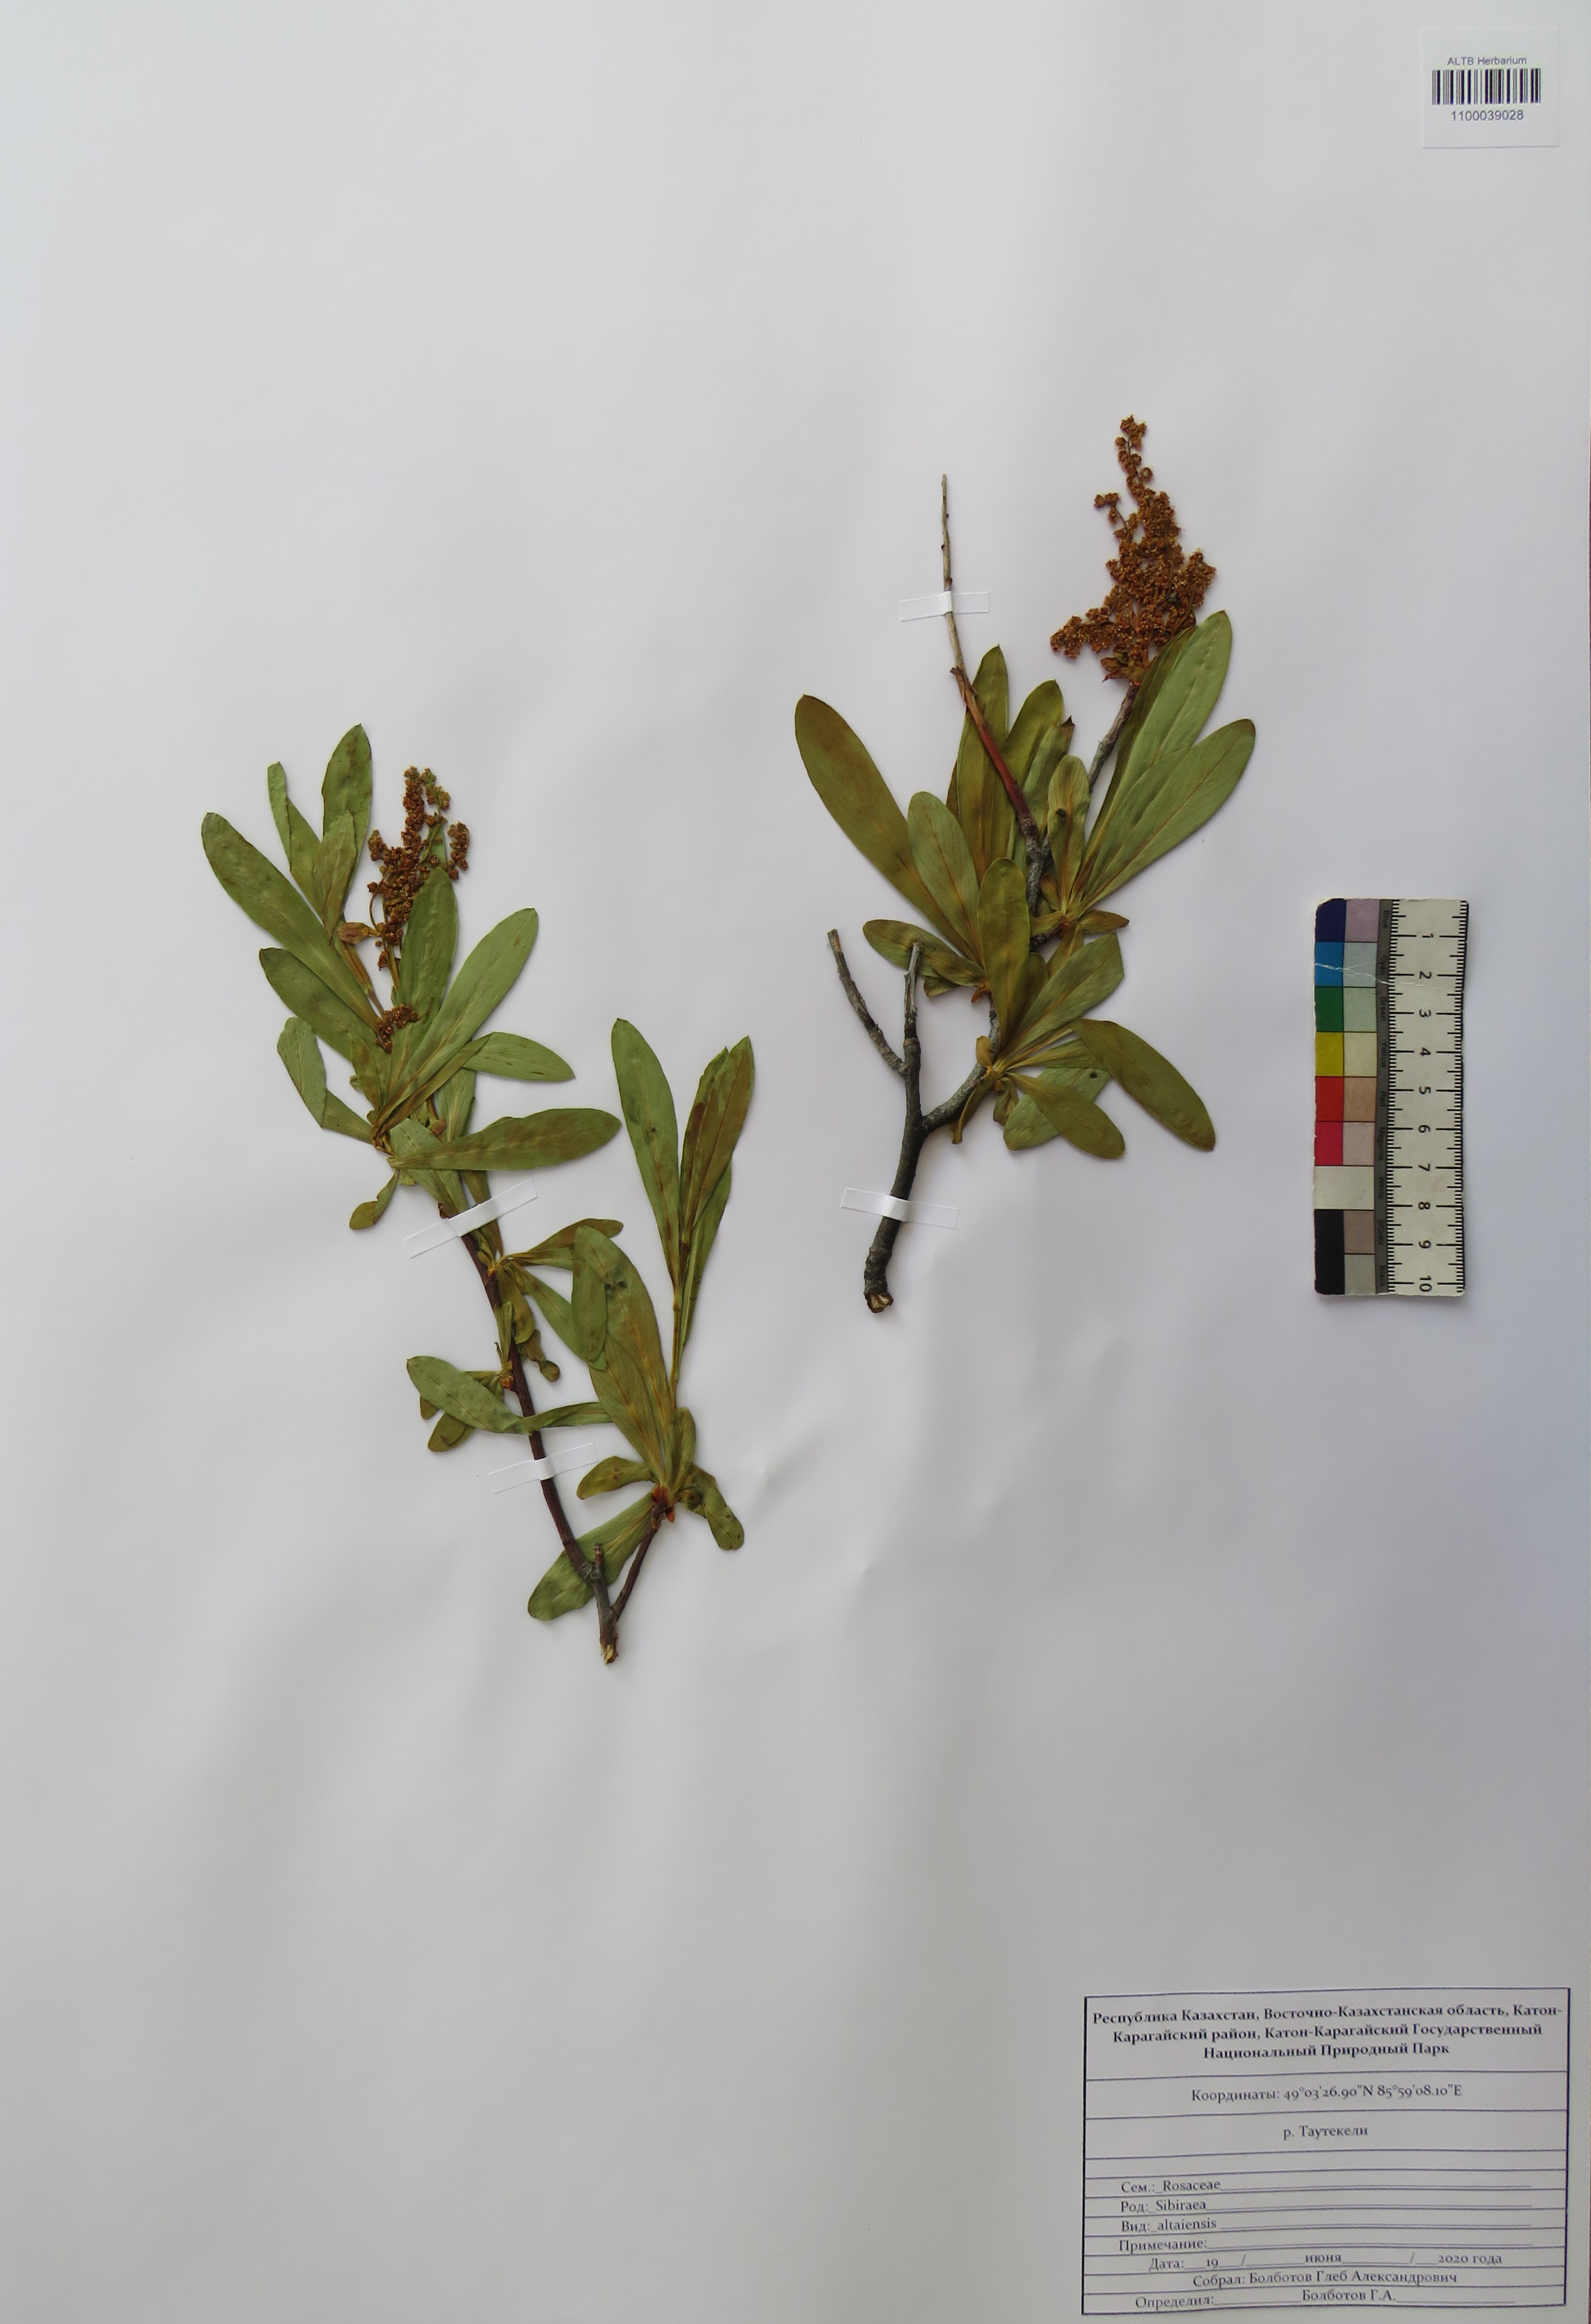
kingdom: Plantae
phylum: Tracheophyta
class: Magnoliopsida
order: Rosales
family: Rosaceae
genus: Sibiraea
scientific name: Sibiraea laevigata
